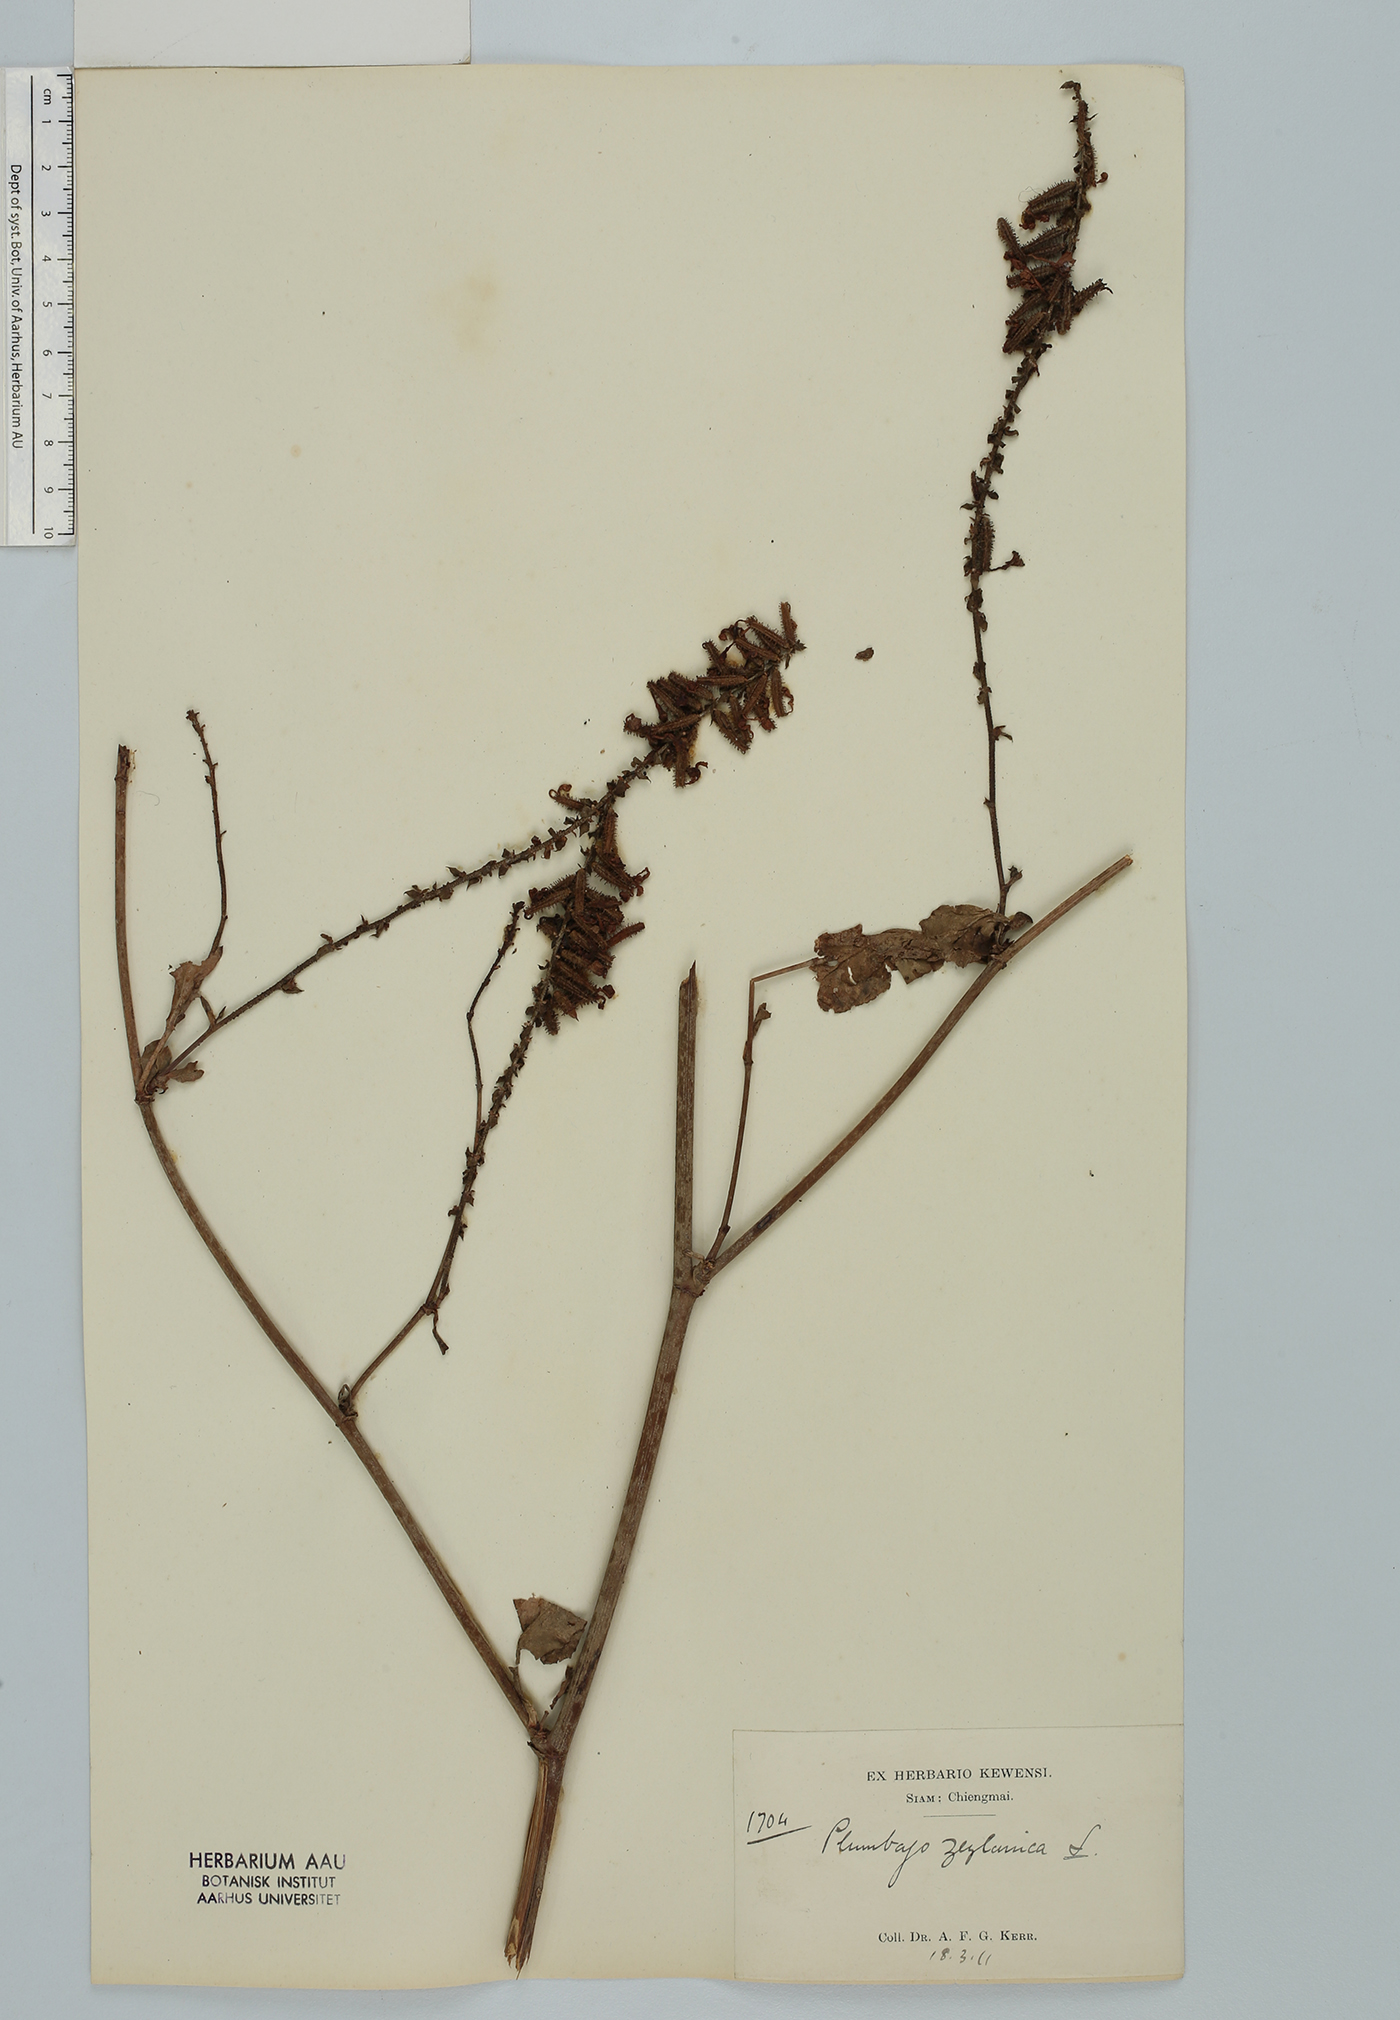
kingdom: Plantae
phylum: Tracheophyta
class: Magnoliopsida
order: Caryophyllales
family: Plumbaginaceae
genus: Plumbago
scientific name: Plumbago zeylanica
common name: Doctorbush
